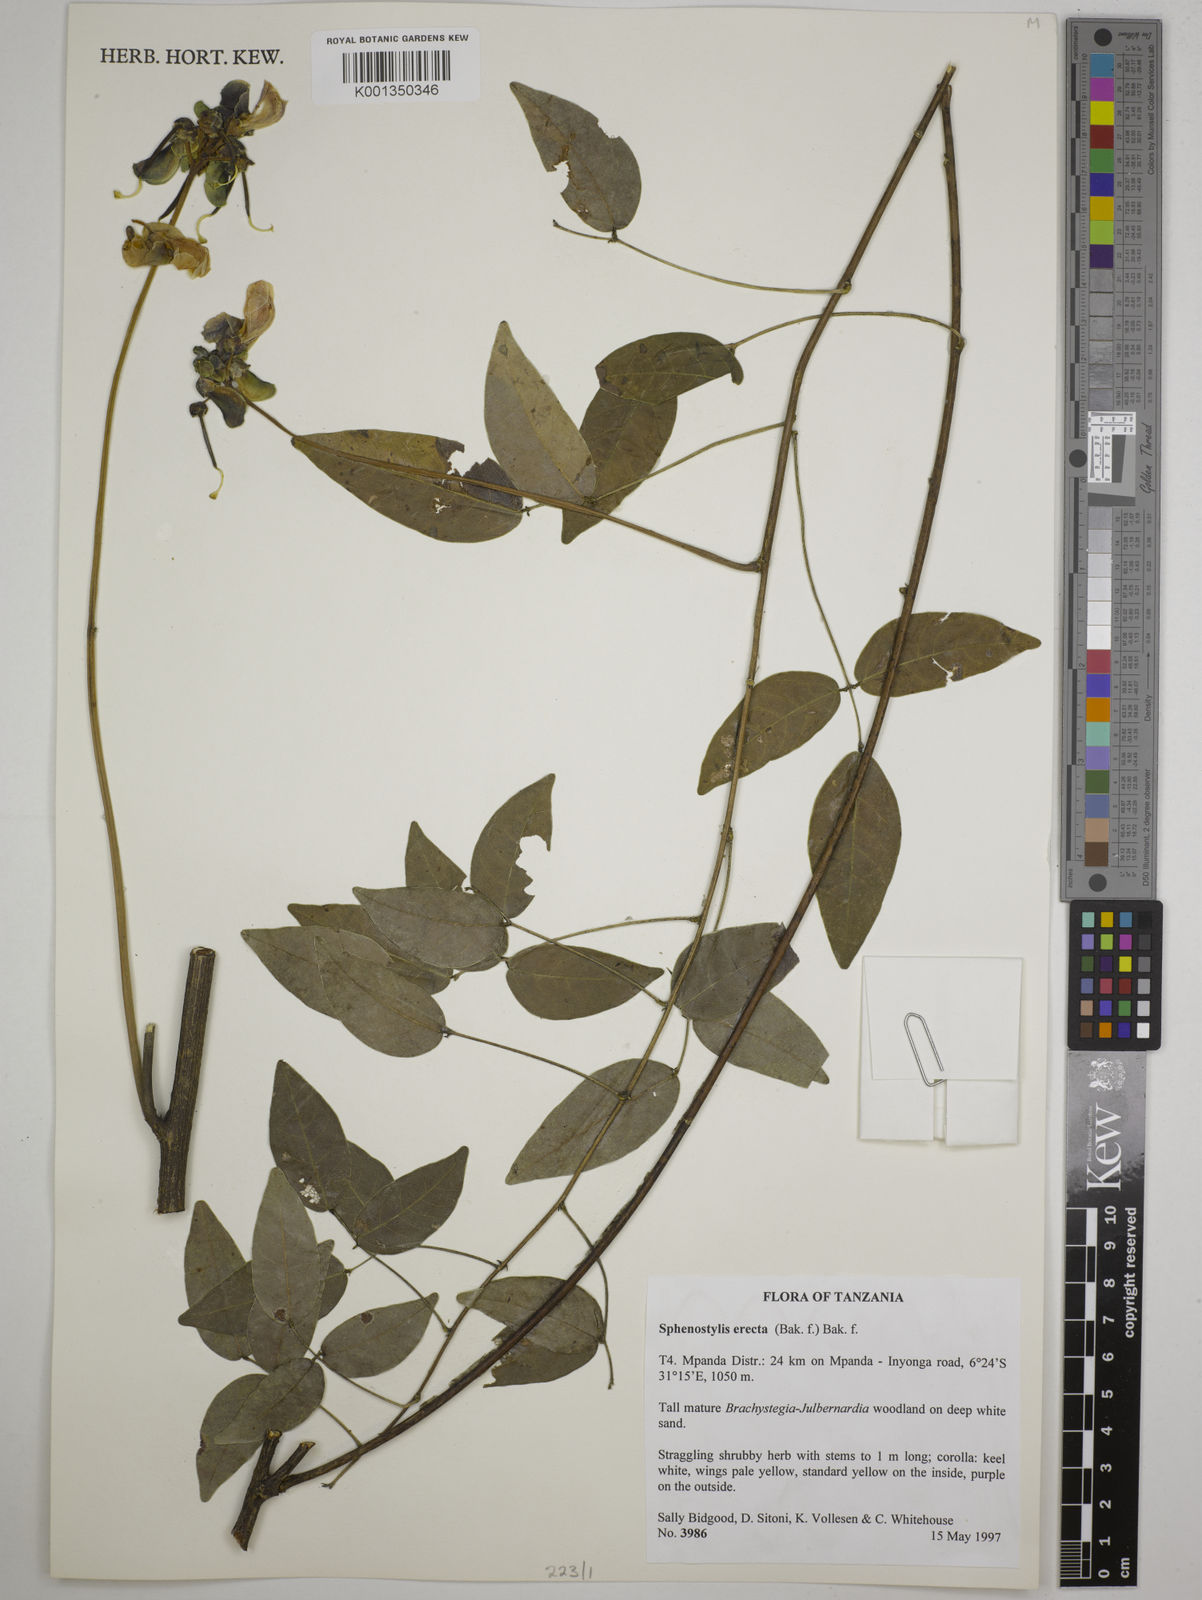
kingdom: Plantae
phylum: Tracheophyta
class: Magnoliopsida
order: Fabales
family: Fabaceae
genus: Sphenostylis
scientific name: Sphenostylis
